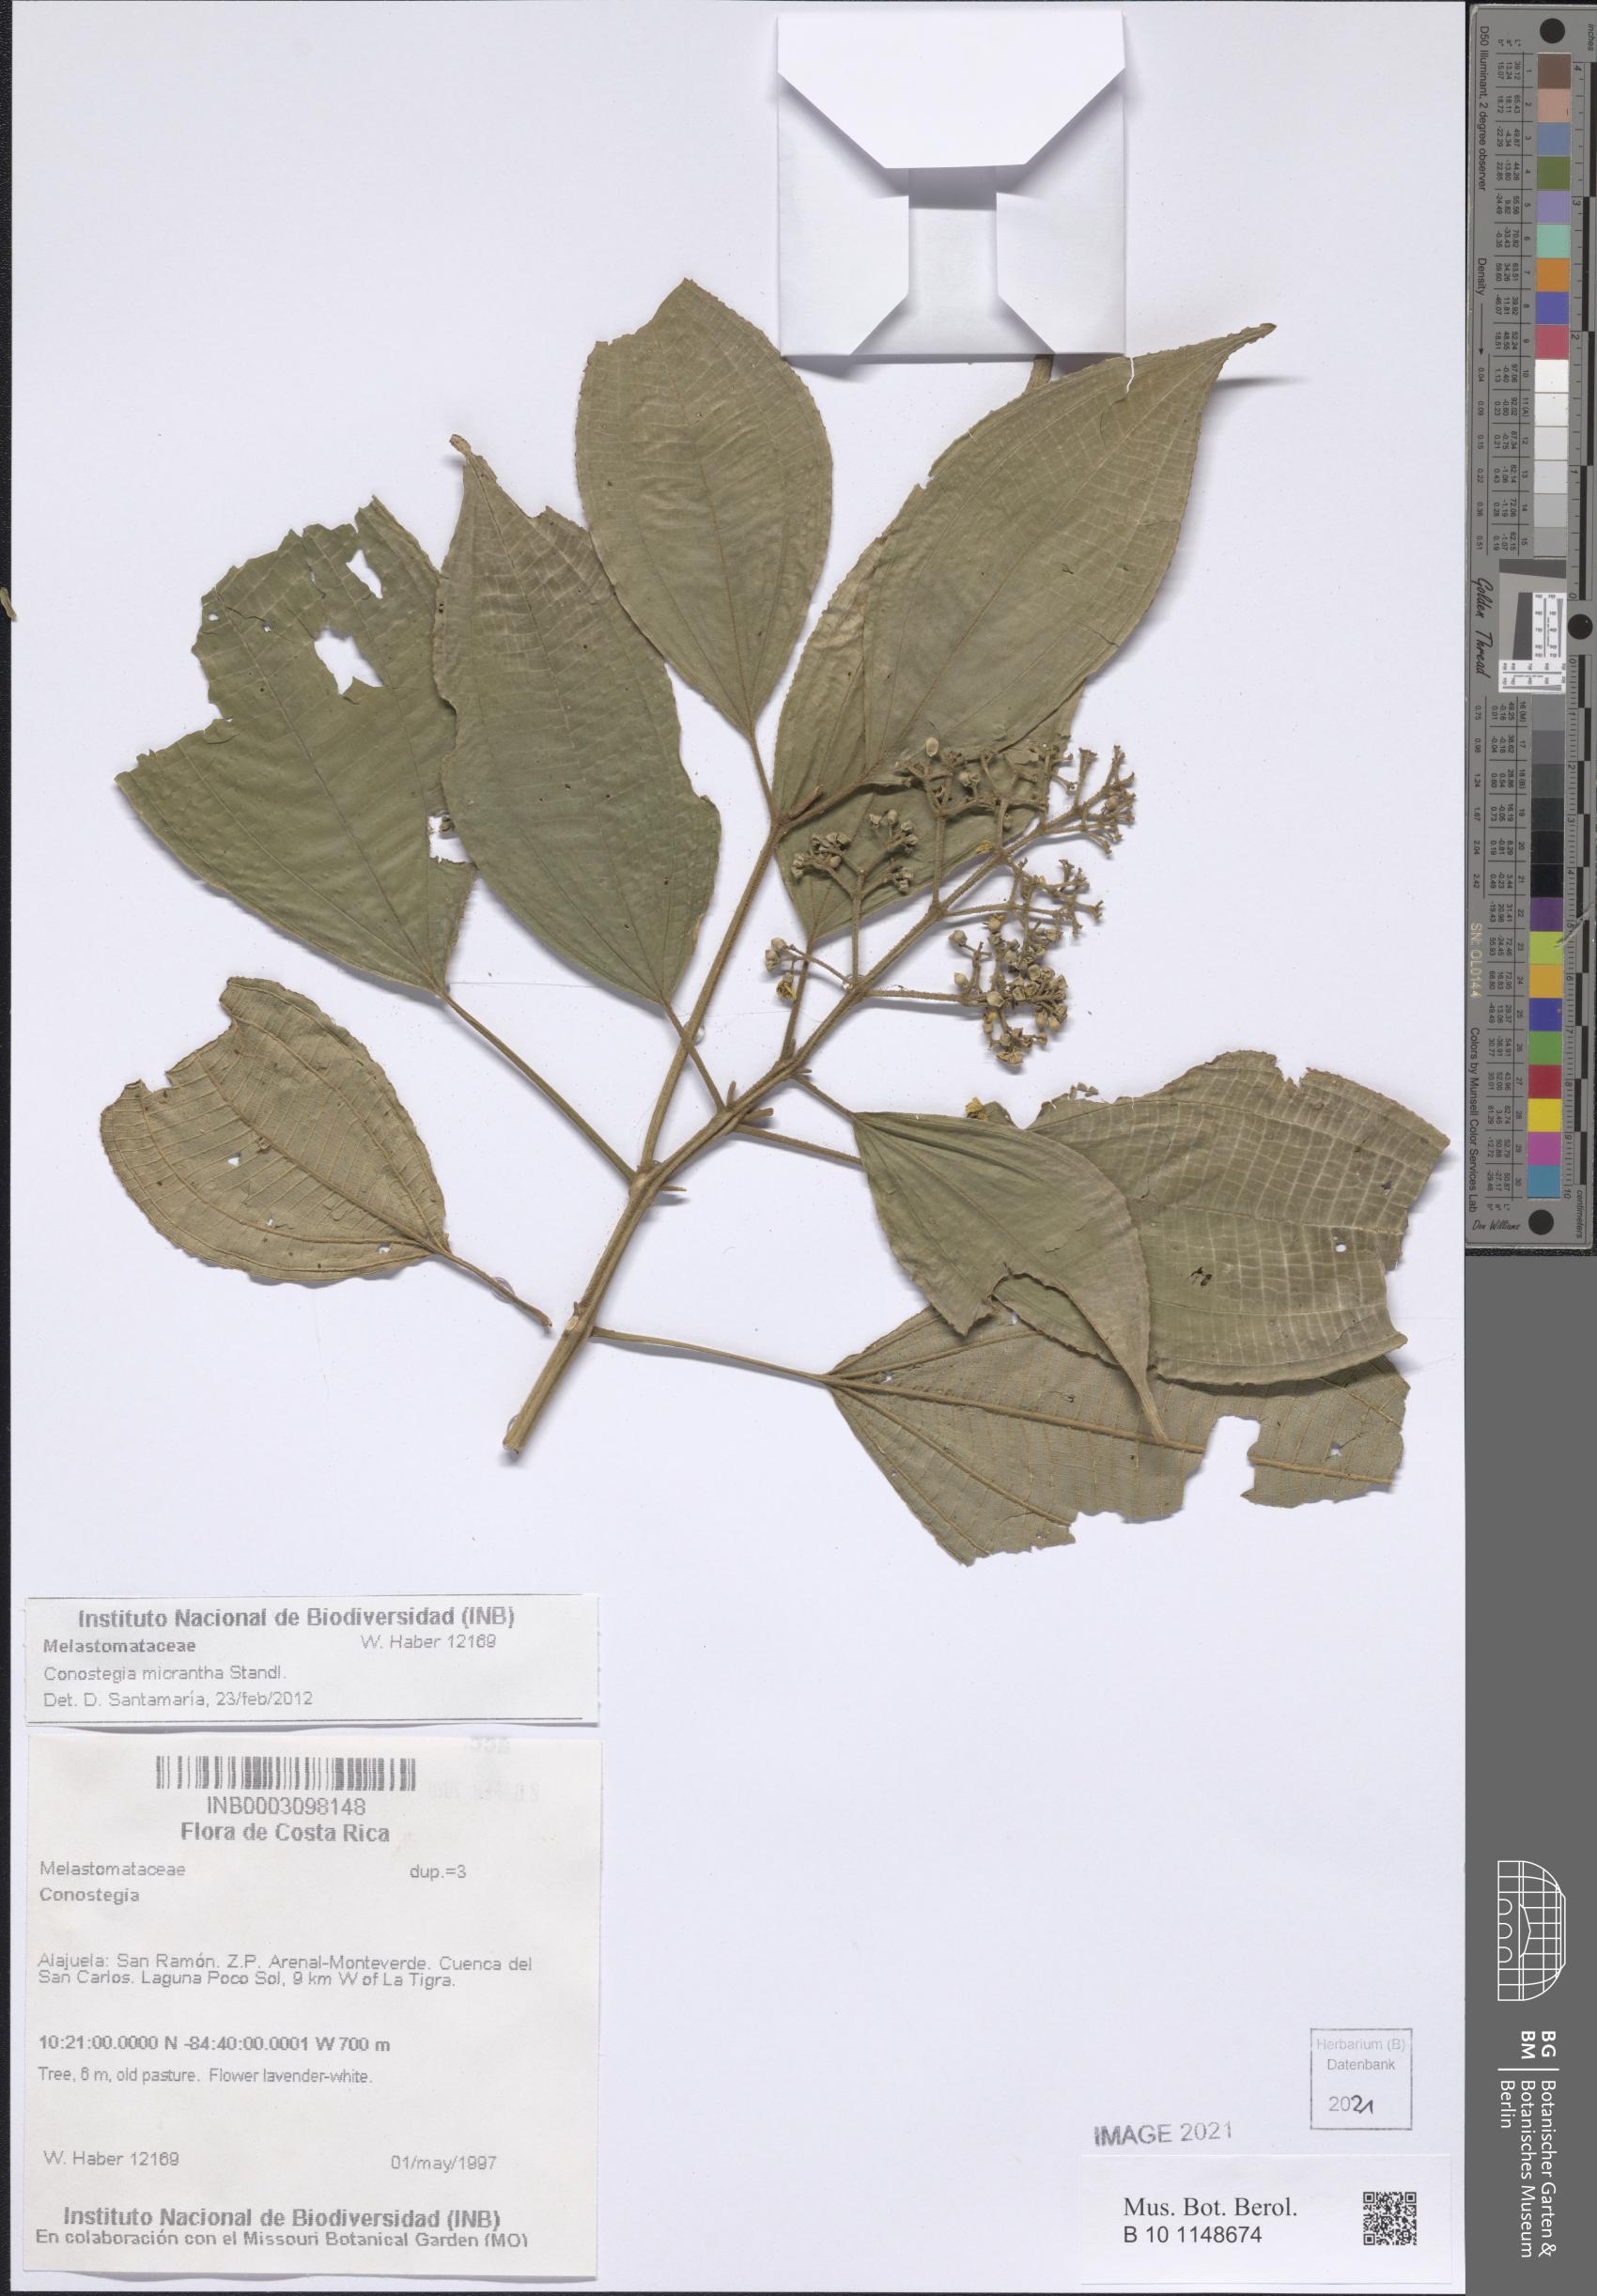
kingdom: Plantae
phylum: Tracheophyta
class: Magnoliopsida
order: Myrtales
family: Melastomataceae
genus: Miconia
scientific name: Miconia conomicrantha
